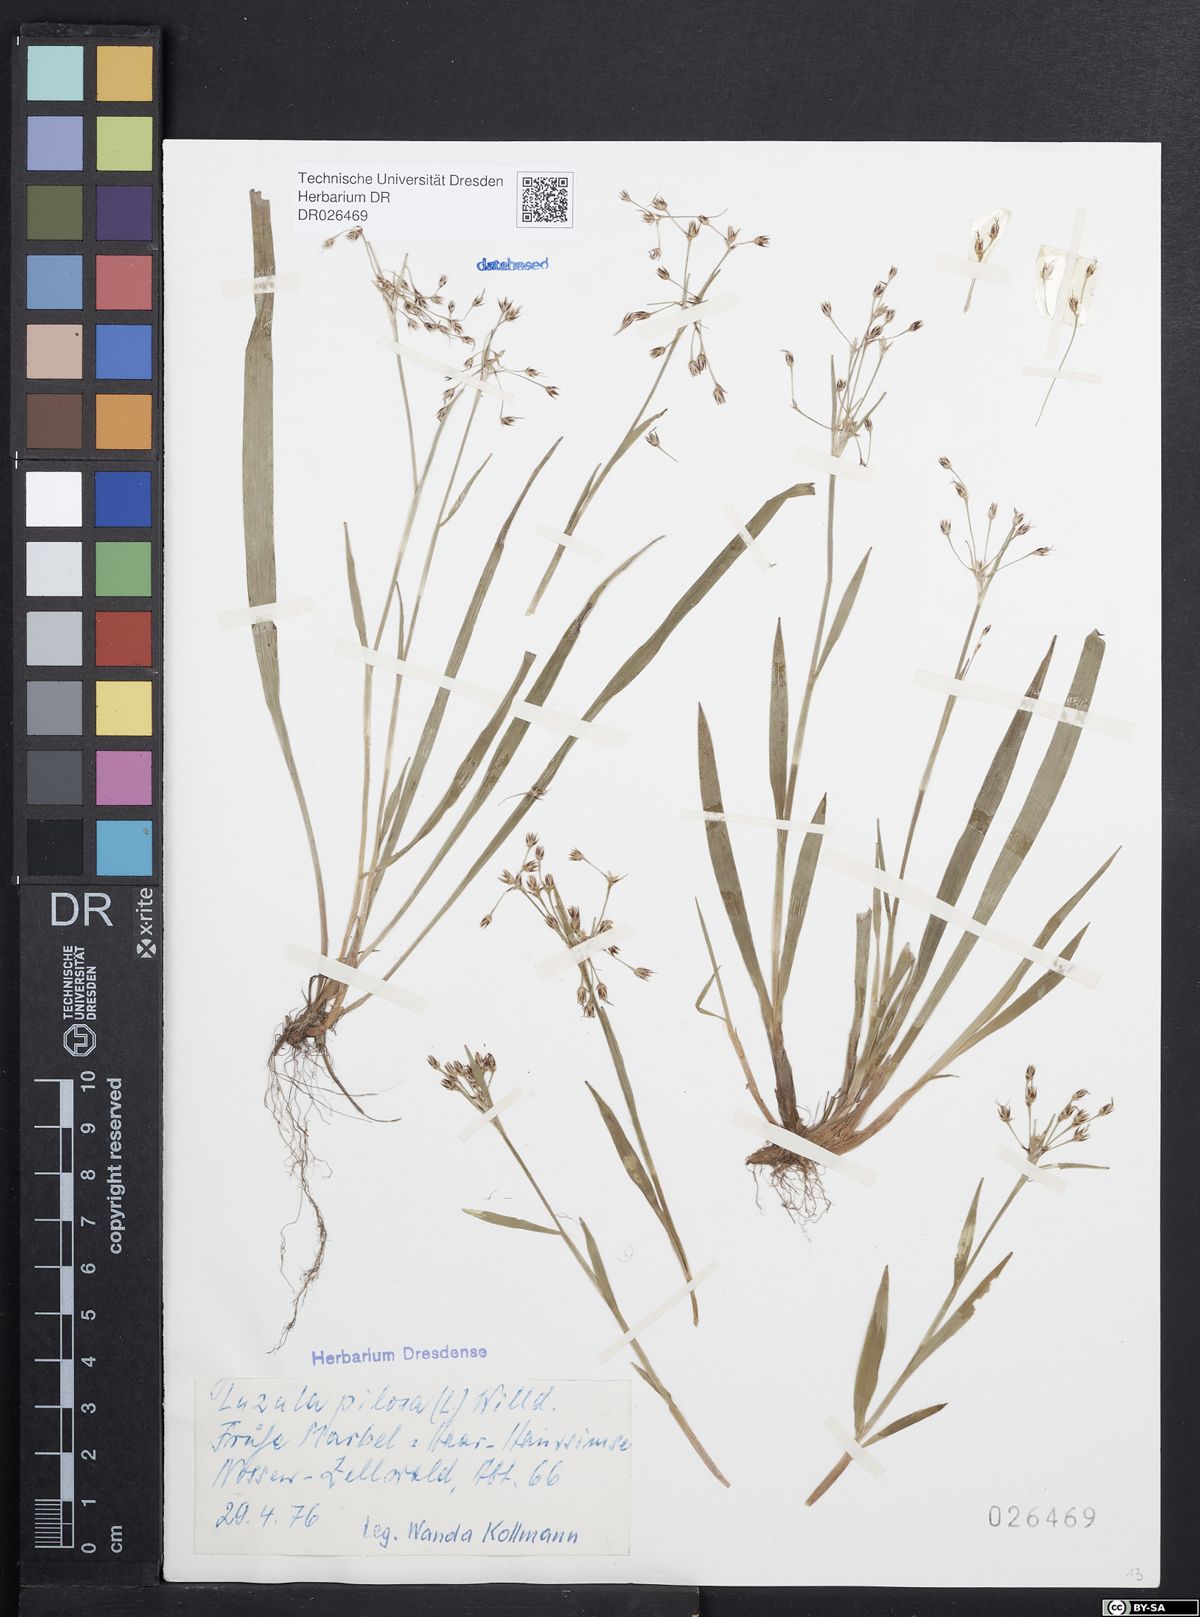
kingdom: Plantae
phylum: Tracheophyta
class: Liliopsida
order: Poales
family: Juncaceae
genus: Luzula
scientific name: Luzula pilosa
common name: Hairy wood-rush
